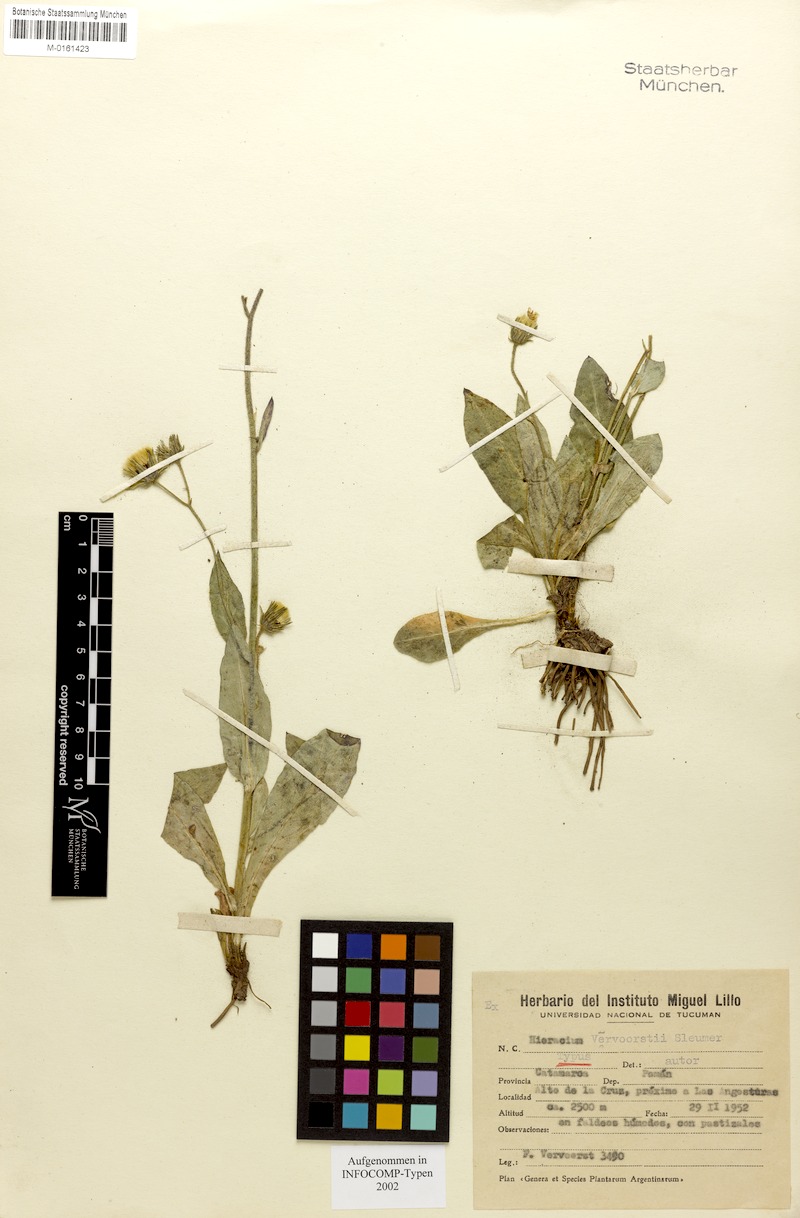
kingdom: Plantae
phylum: Tracheophyta
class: Magnoliopsida
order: Asterales
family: Asteraceae
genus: Hieracium
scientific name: Hieracium vervoorstii
